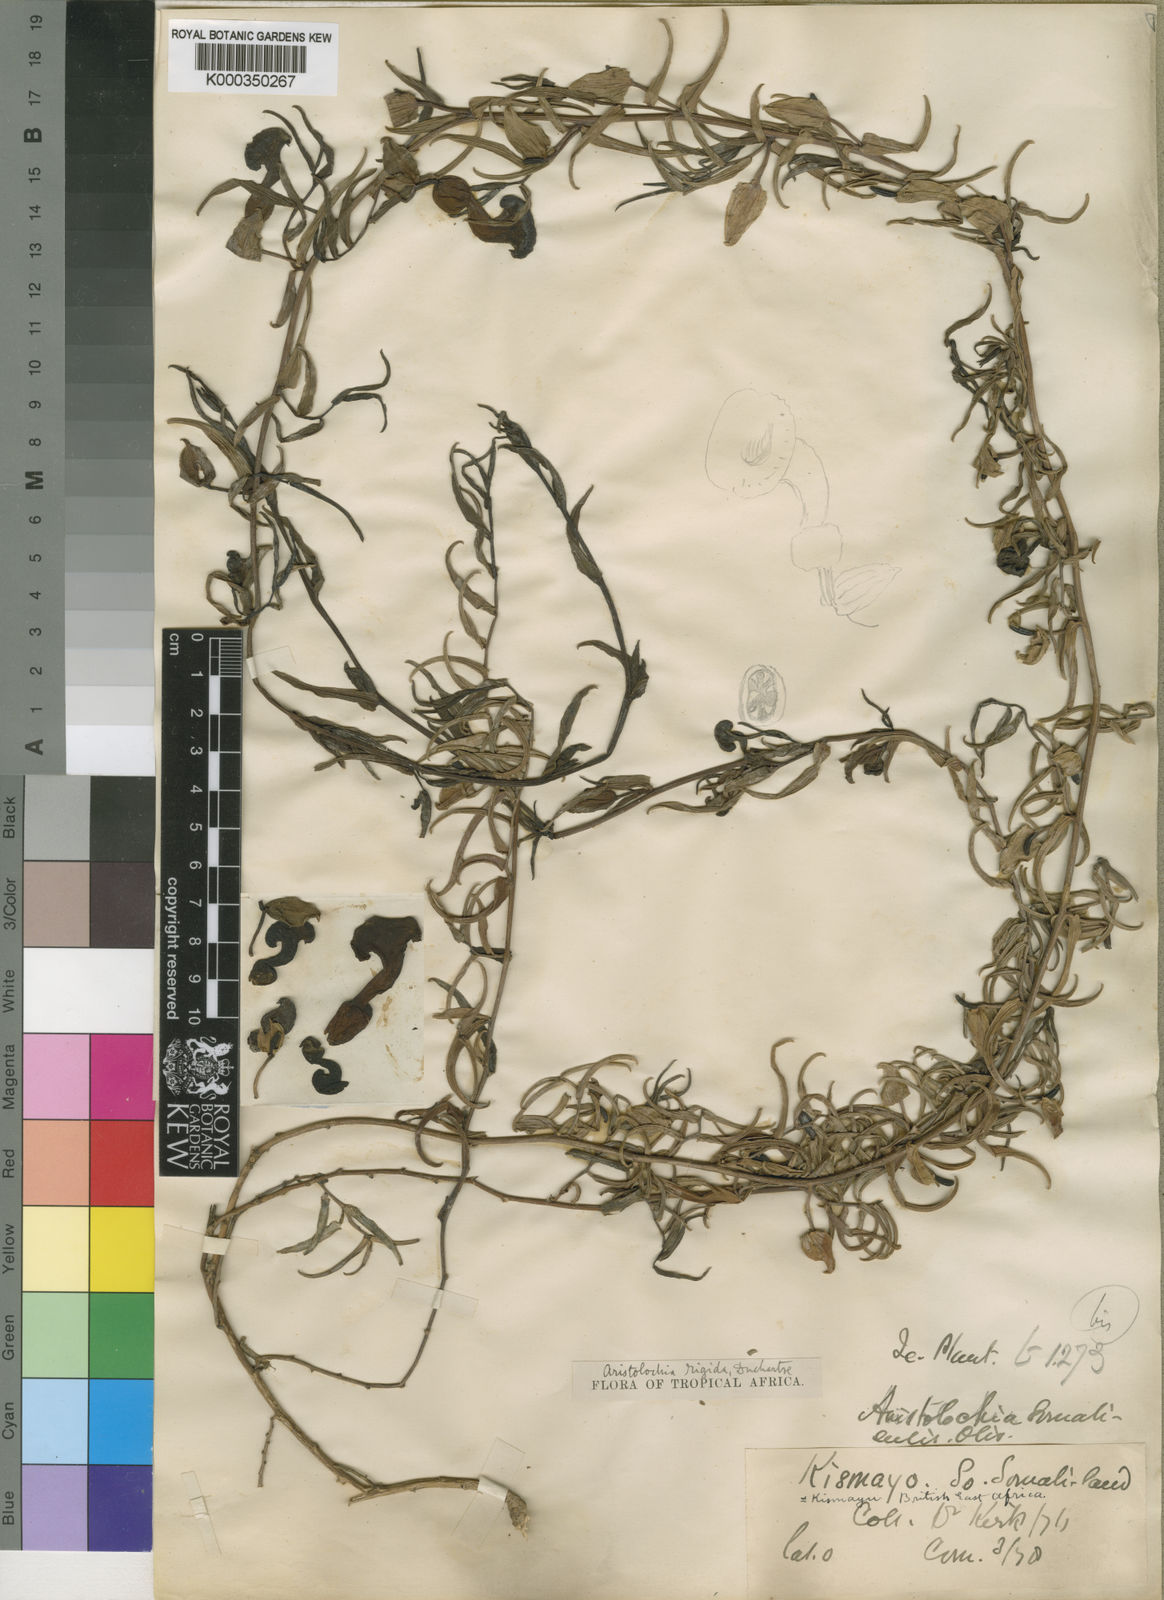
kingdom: Plantae
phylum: Tracheophyta
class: Magnoliopsida
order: Piperales
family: Aristolochiaceae
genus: Aristolochia
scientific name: Aristolochia rigida
